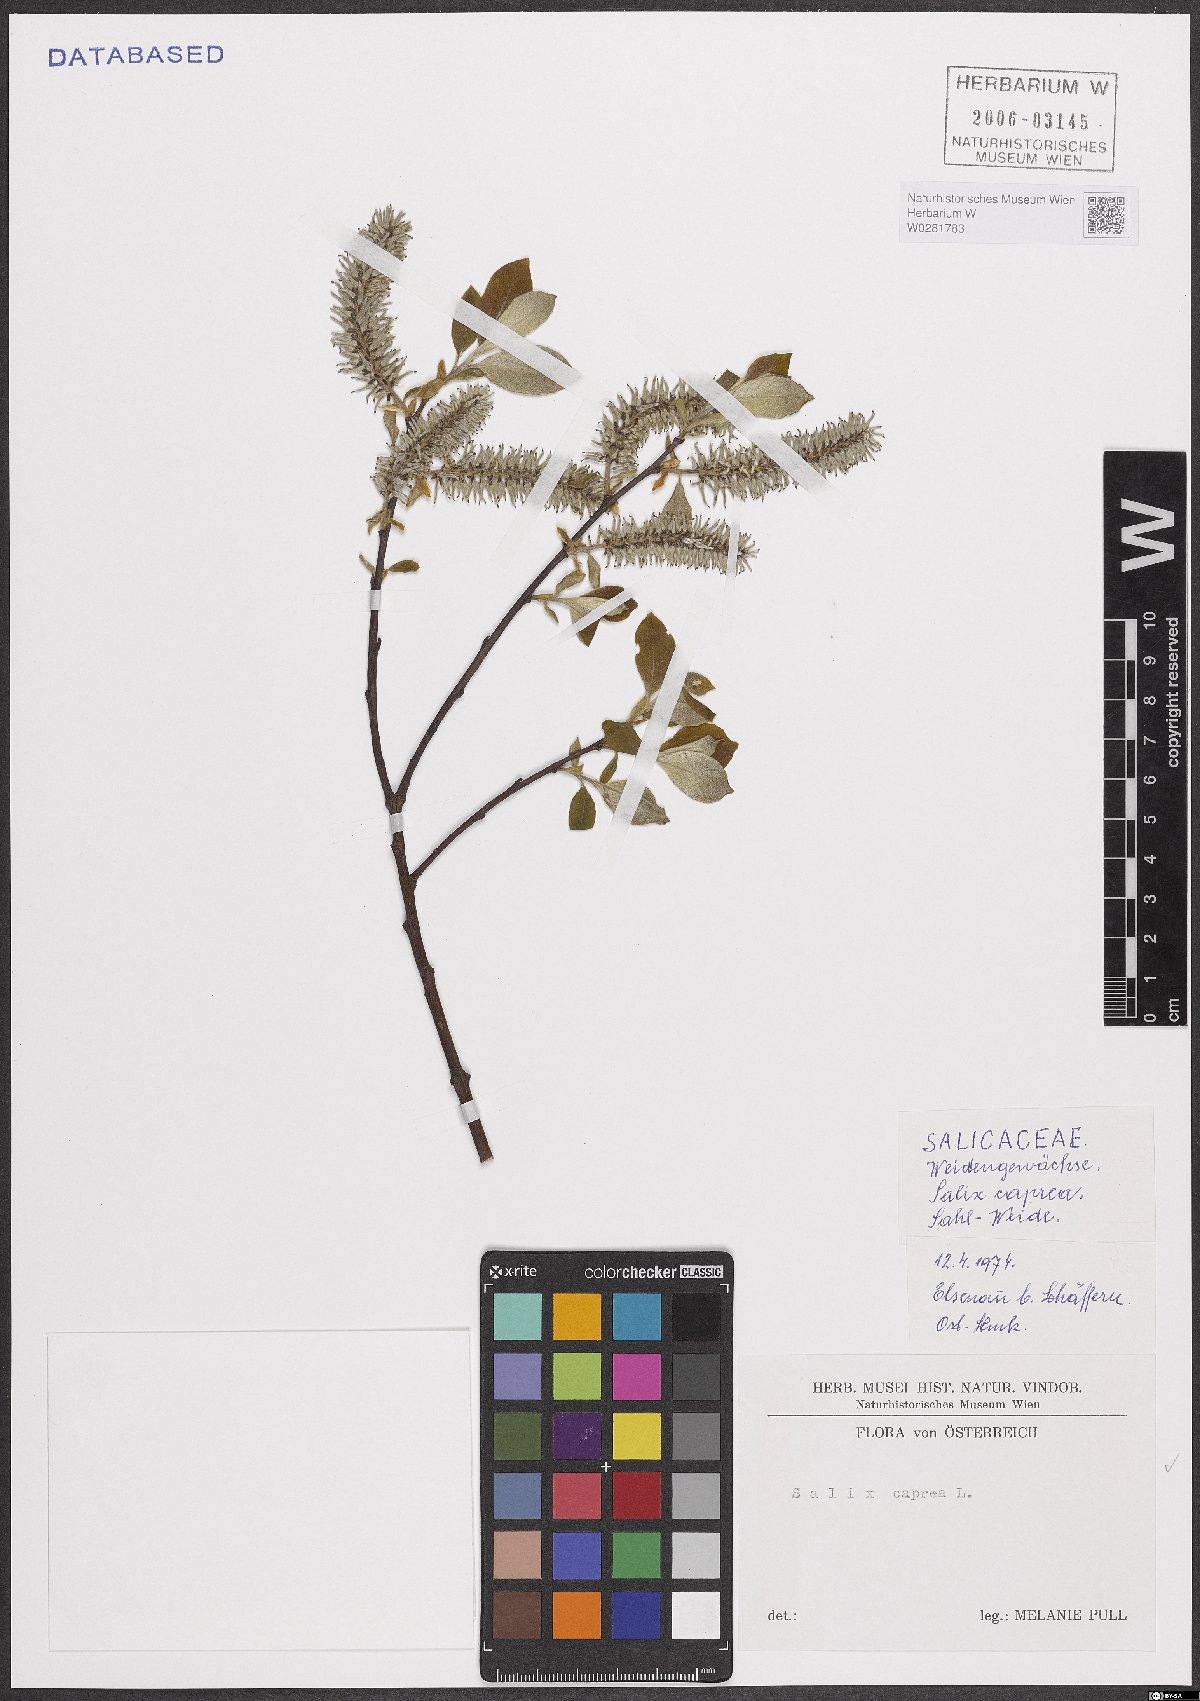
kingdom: Plantae
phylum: Tracheophyta
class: Magnoliopsida
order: Malpighiales
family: Salicaceae
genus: Salix
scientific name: Salix caprea
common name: Goat willow
